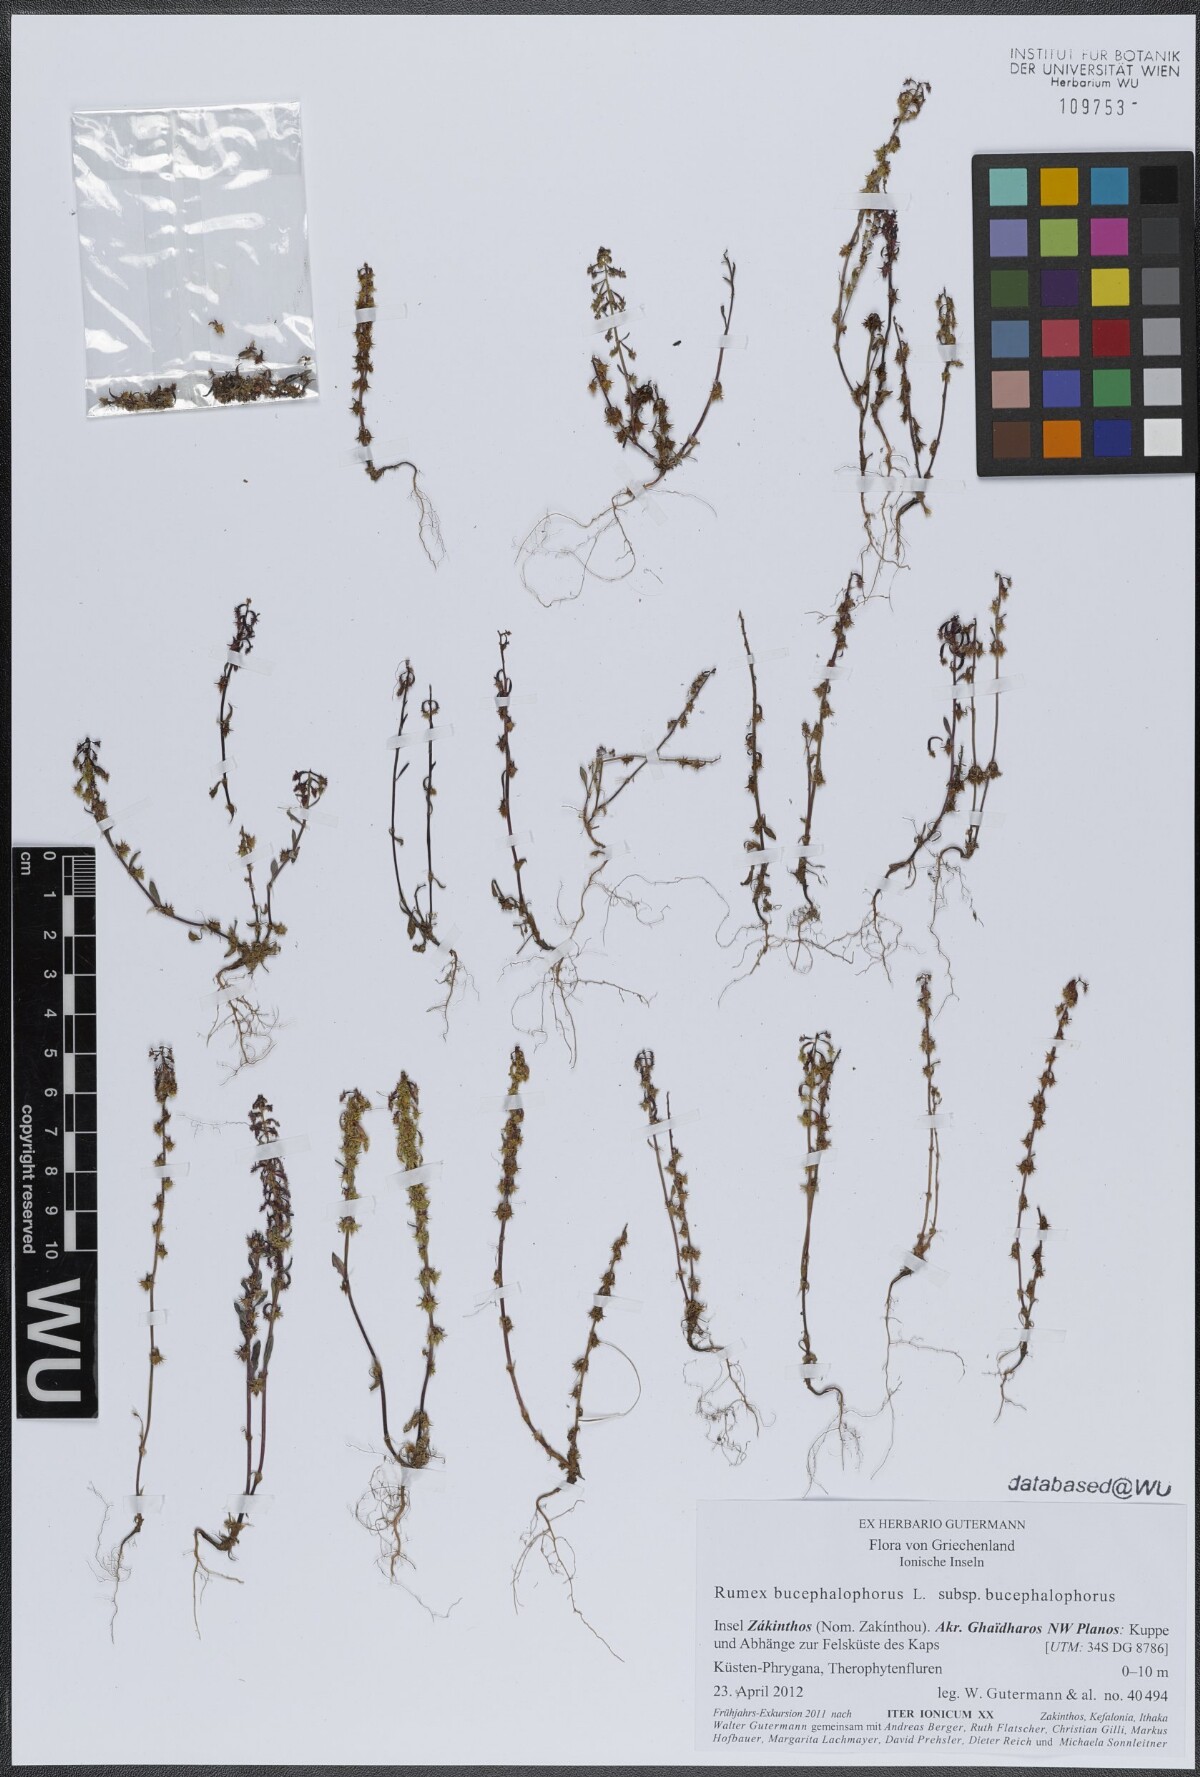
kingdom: Plantae
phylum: Tracheophyta
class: Magnoliopsida
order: Caryophyllales
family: Polygonaceae
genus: Rumex
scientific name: Rumex bucephalophorus
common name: Red dock
